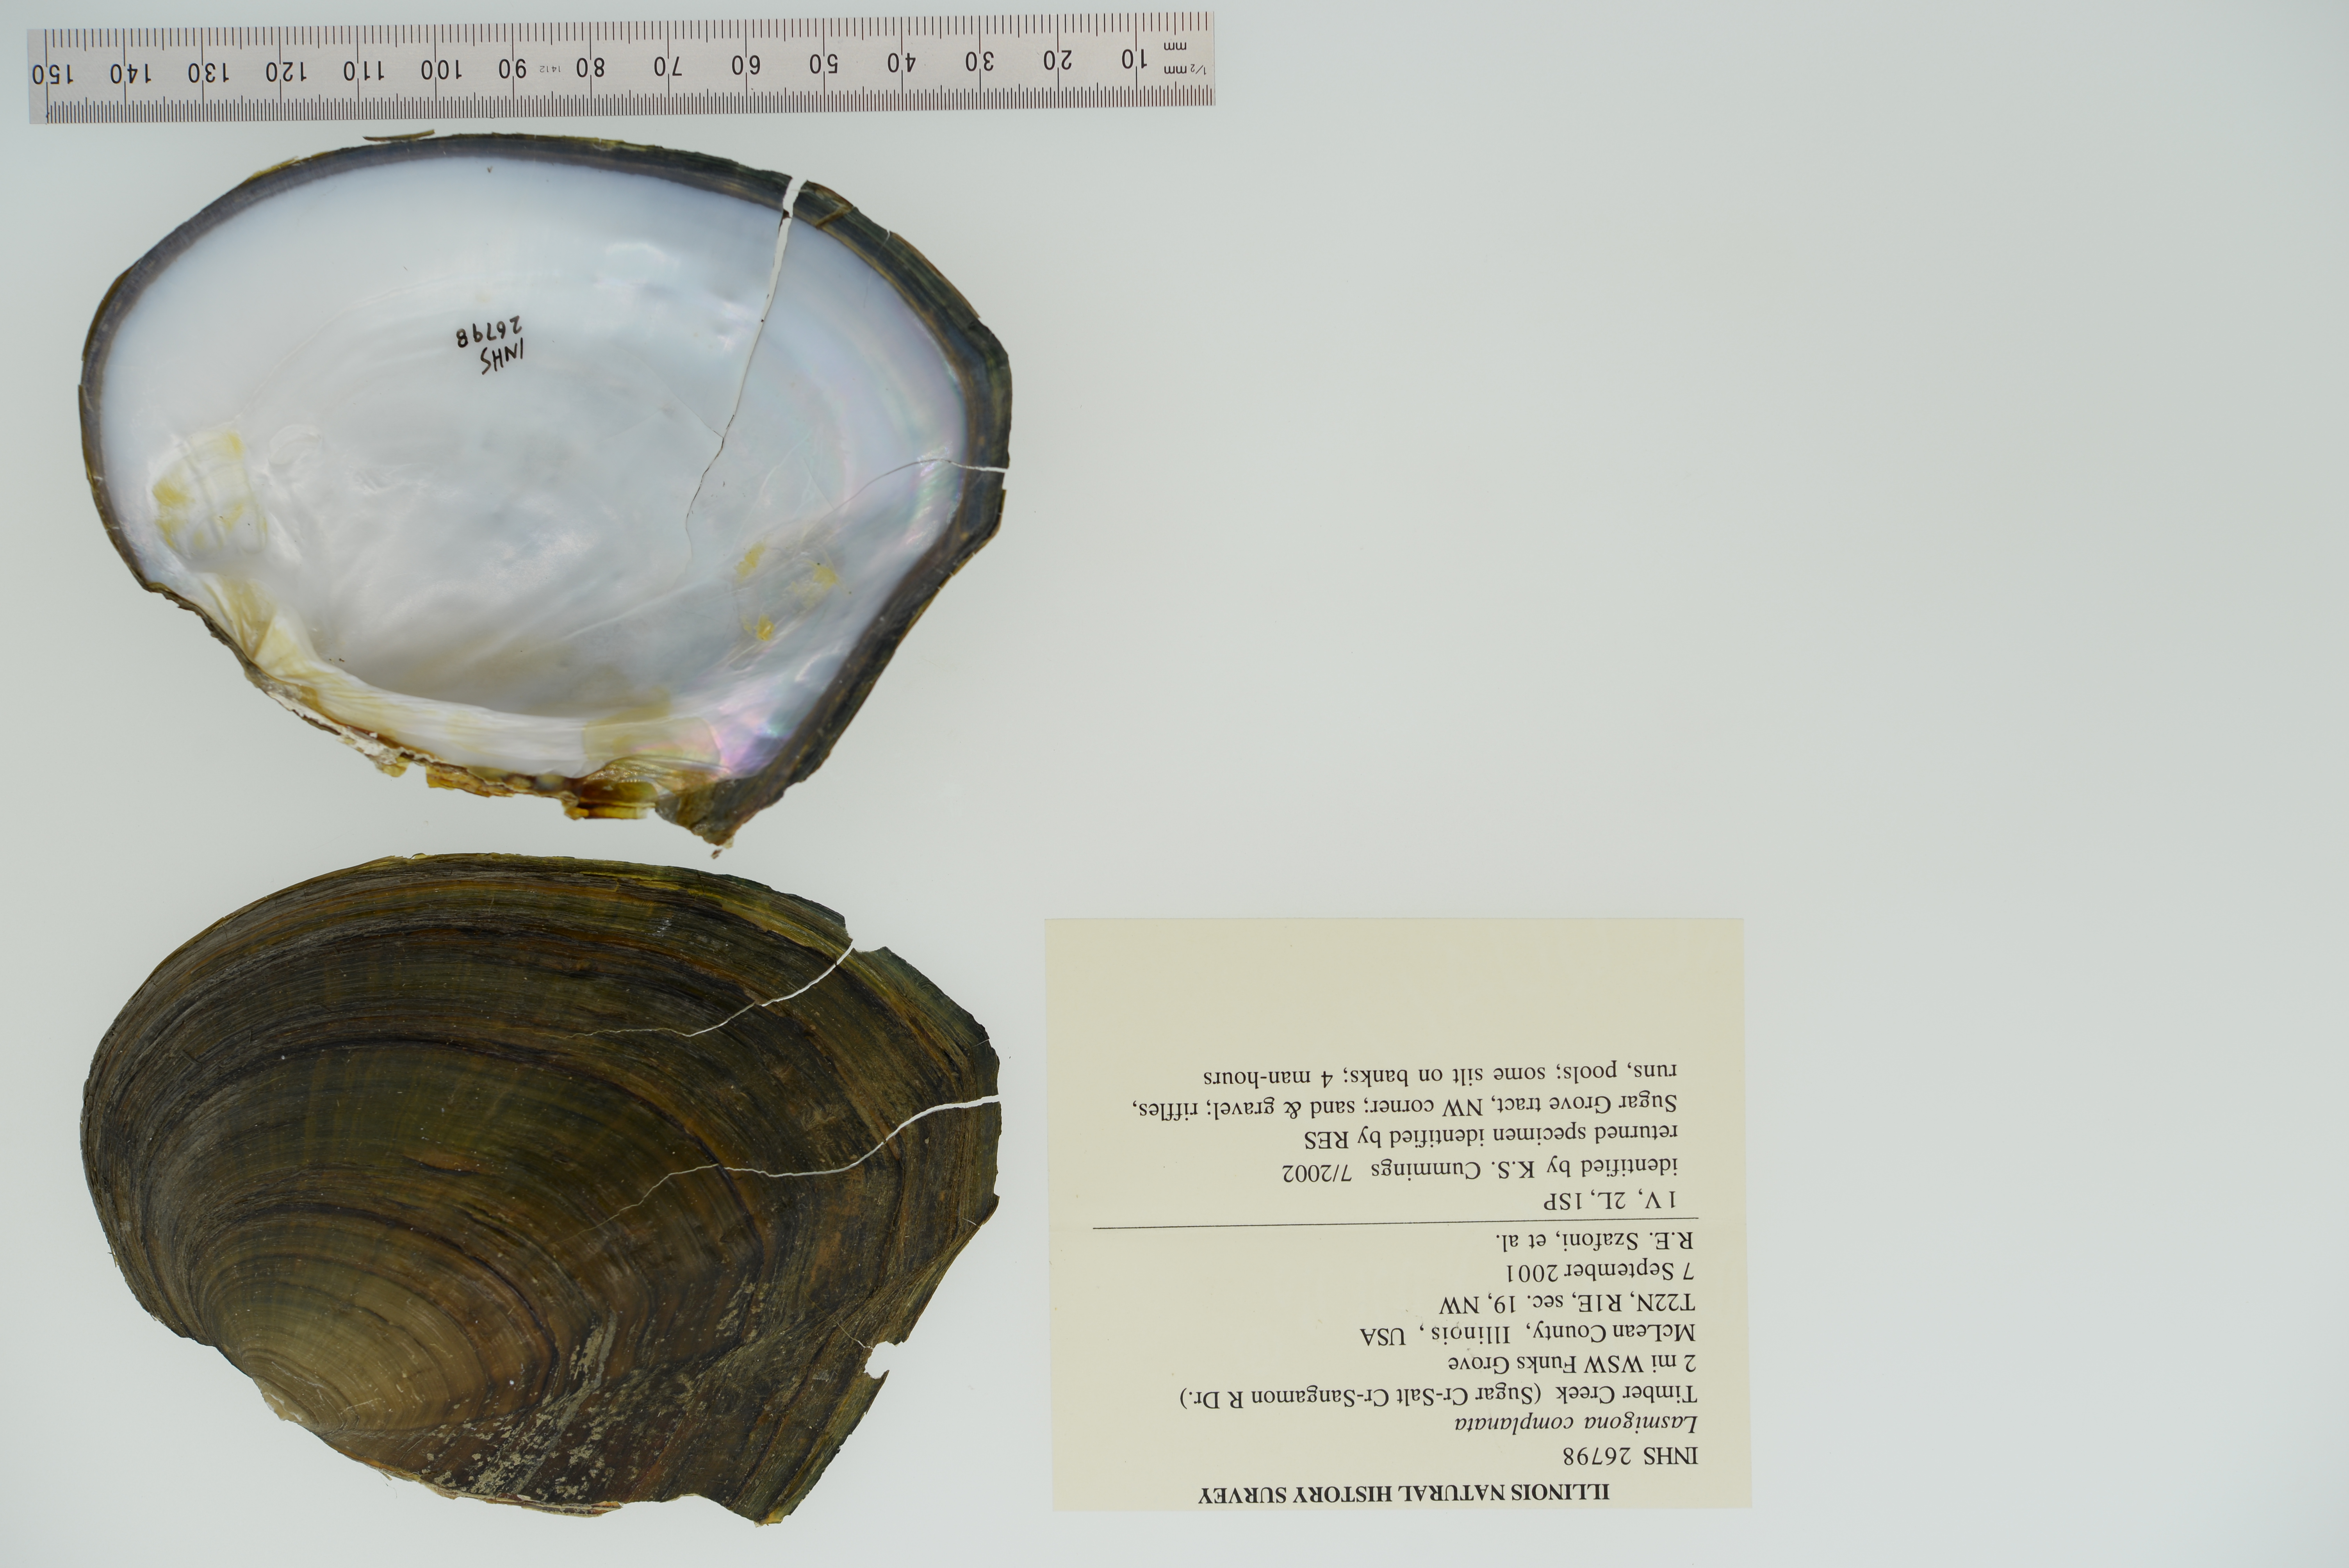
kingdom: Animalia
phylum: Mollusca
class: Bivalvia
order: Unionida
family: Unionidae
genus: Lasmigona
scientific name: Lasmigona complanata
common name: White heelsplitter
